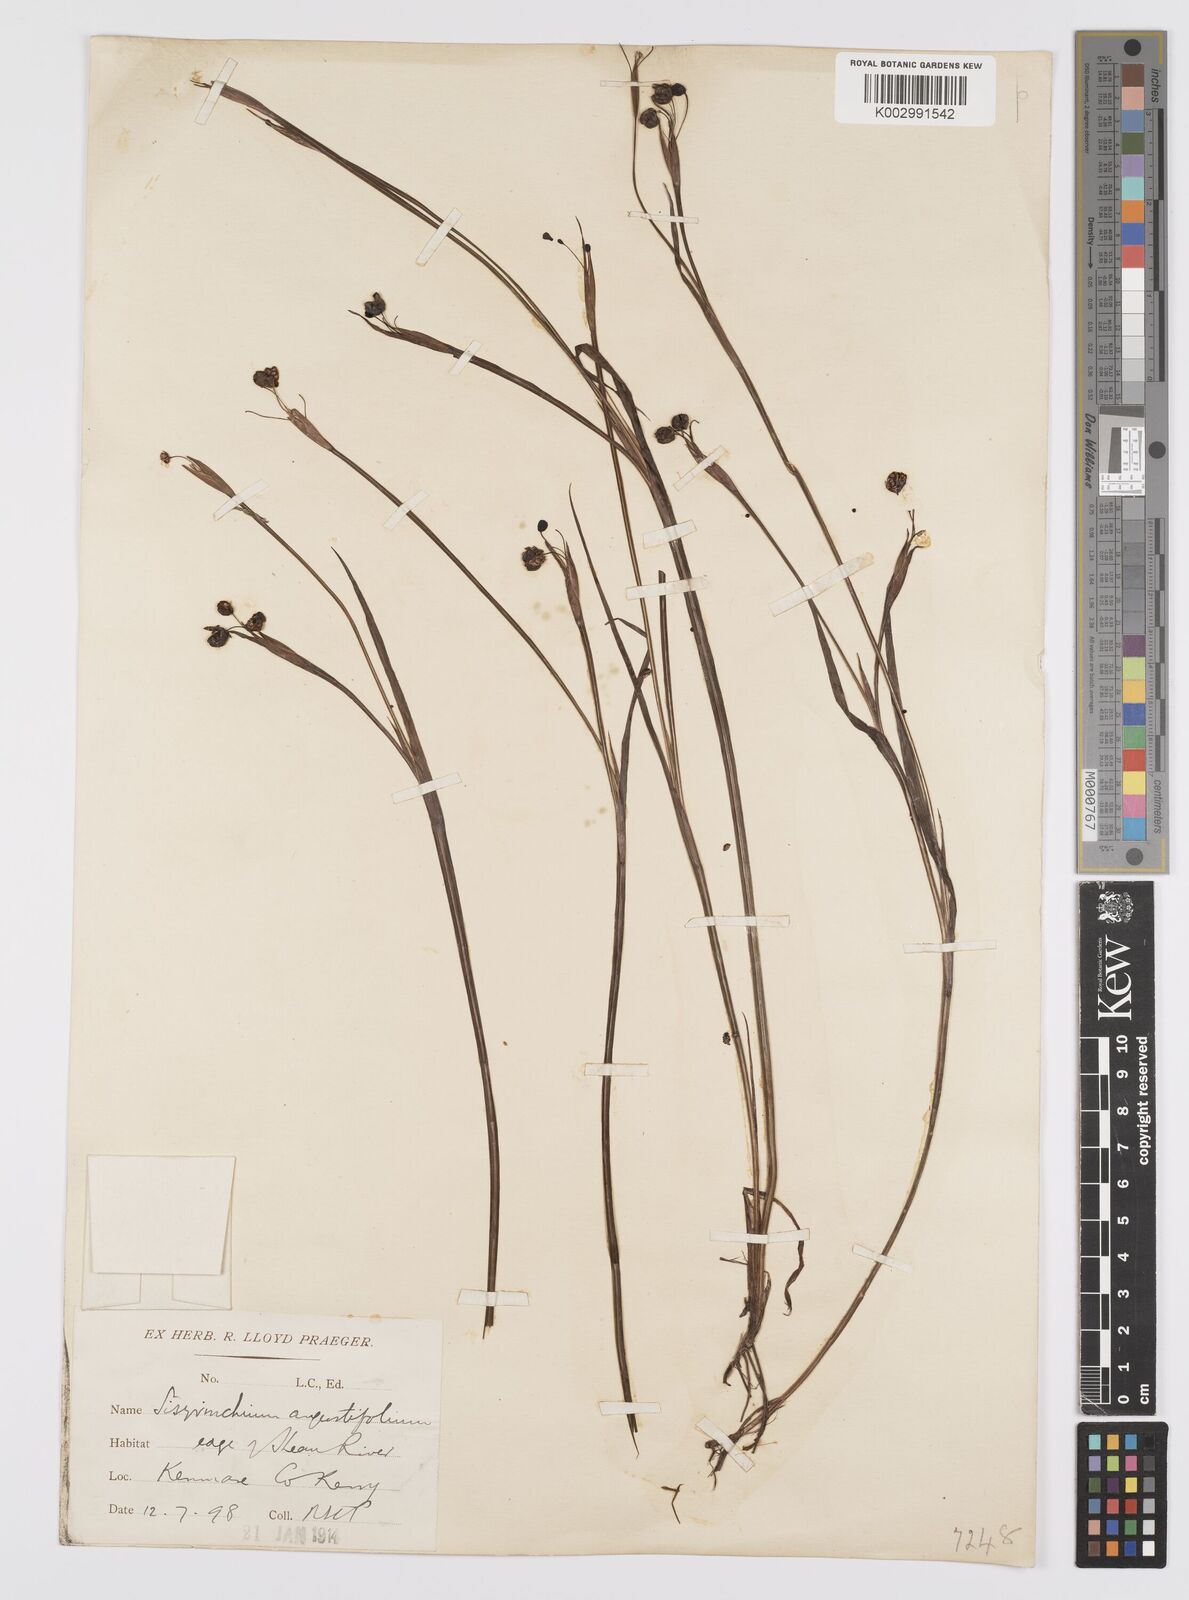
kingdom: Plantae
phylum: Tracheophyta
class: Liliopsida
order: Asparagales
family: Iridaceae
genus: Sisyrinchium
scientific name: Sisyrinchium angustifolium
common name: Narrow-leaf blue-eyed-grass
